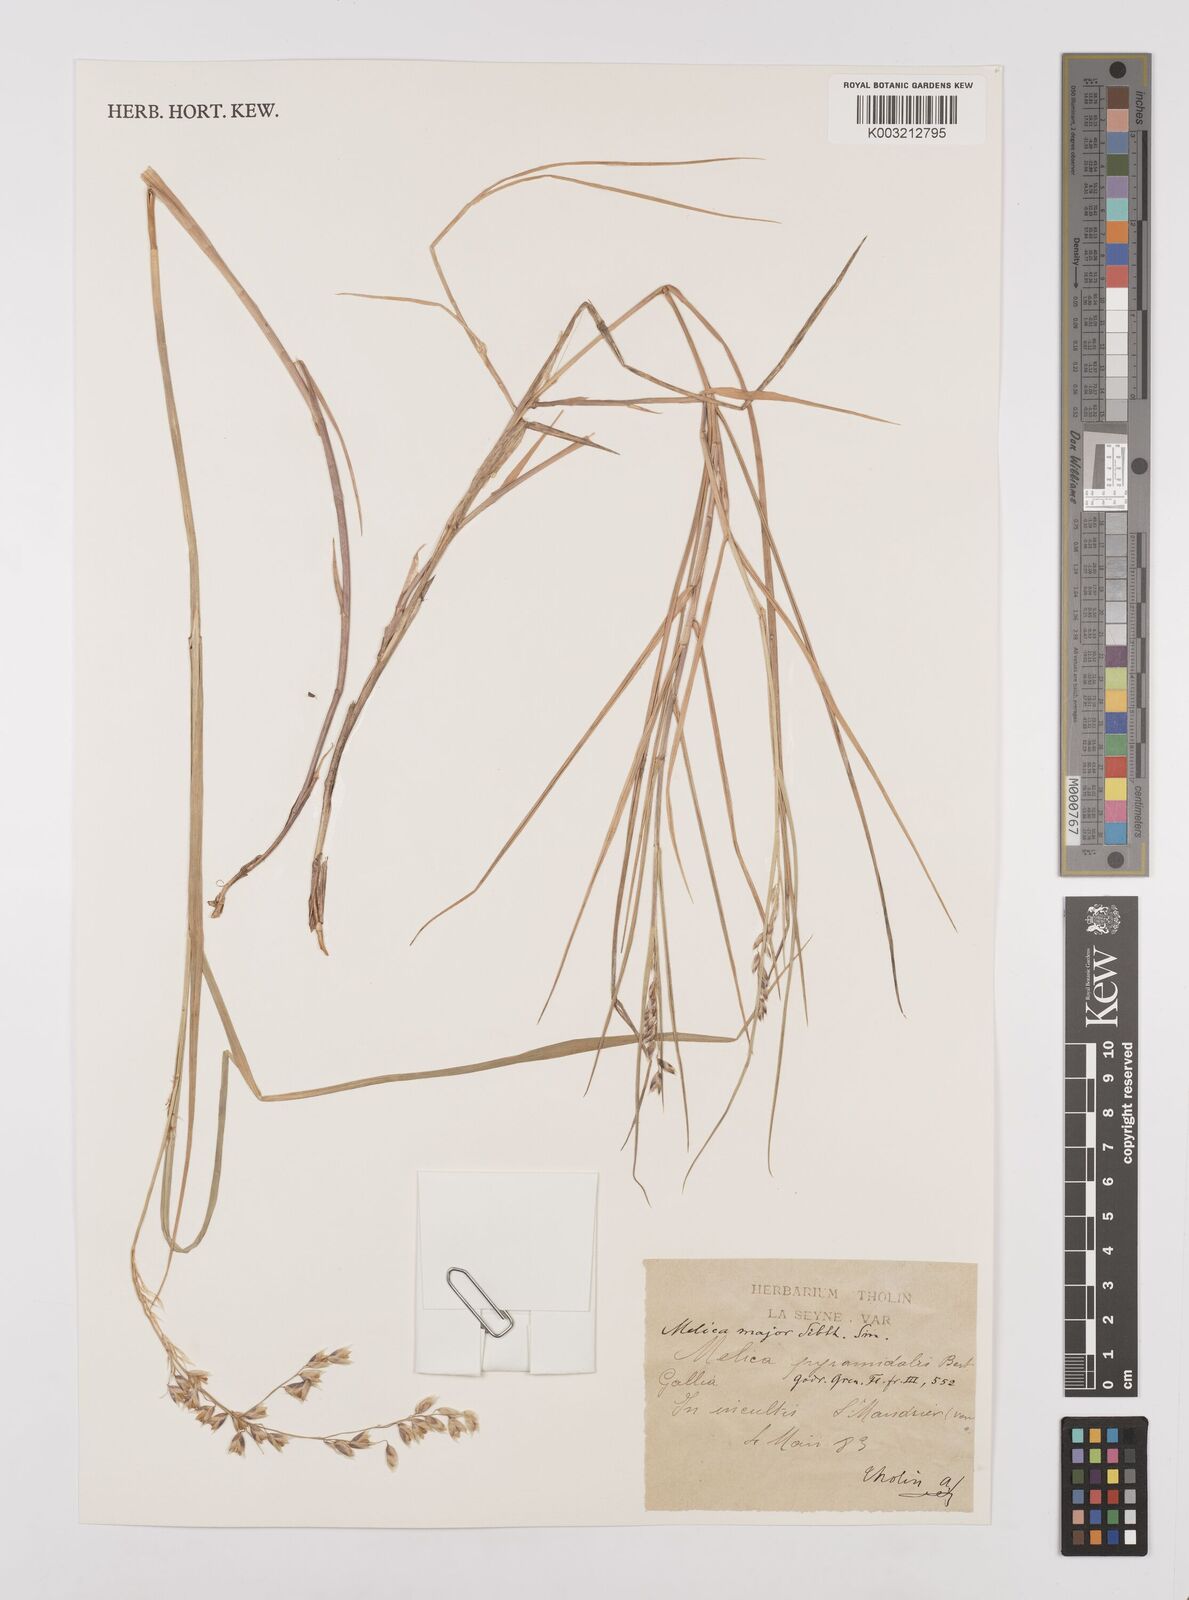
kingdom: Plantae
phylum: Tracheophyta
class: Liliopsida
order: Poales
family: Poaceae
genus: Melica
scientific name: Melica minuta
